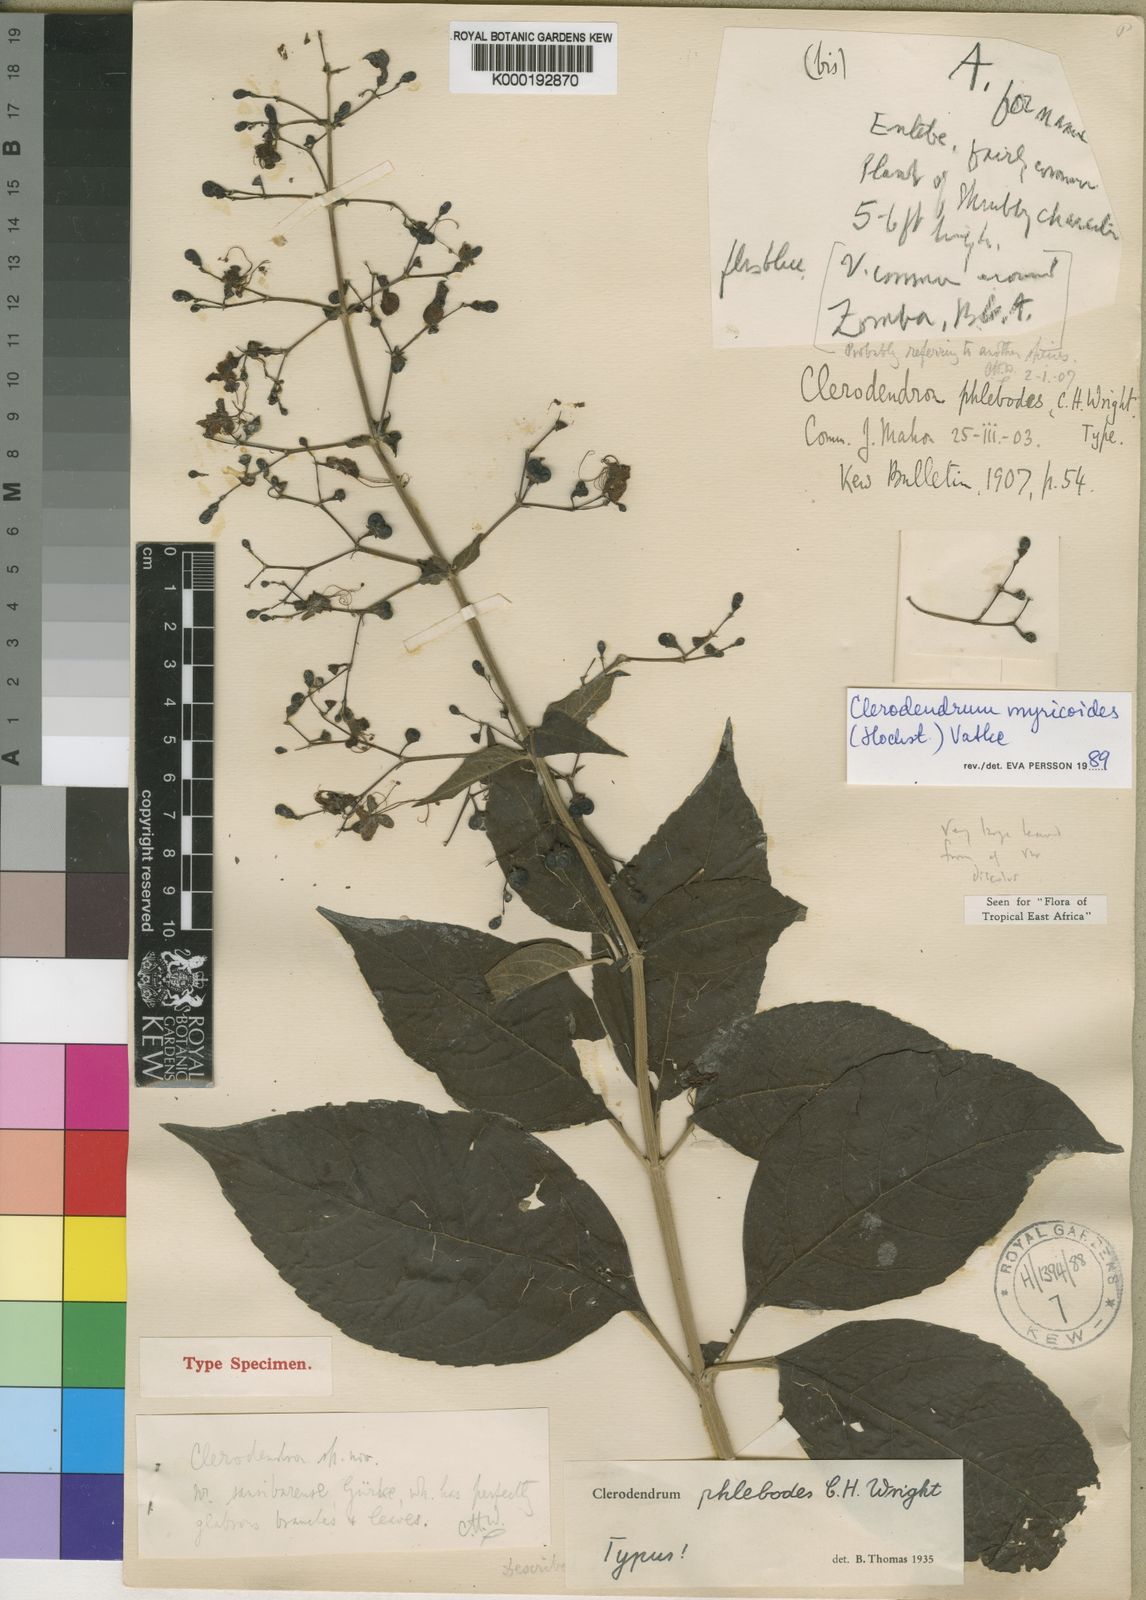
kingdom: Plantae
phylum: Tracheophyta
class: Magnoliopsida
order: Lamiales
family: Lamiaceae
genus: Rotheca
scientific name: Rotheca myricoides
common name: Cats-whiskers
